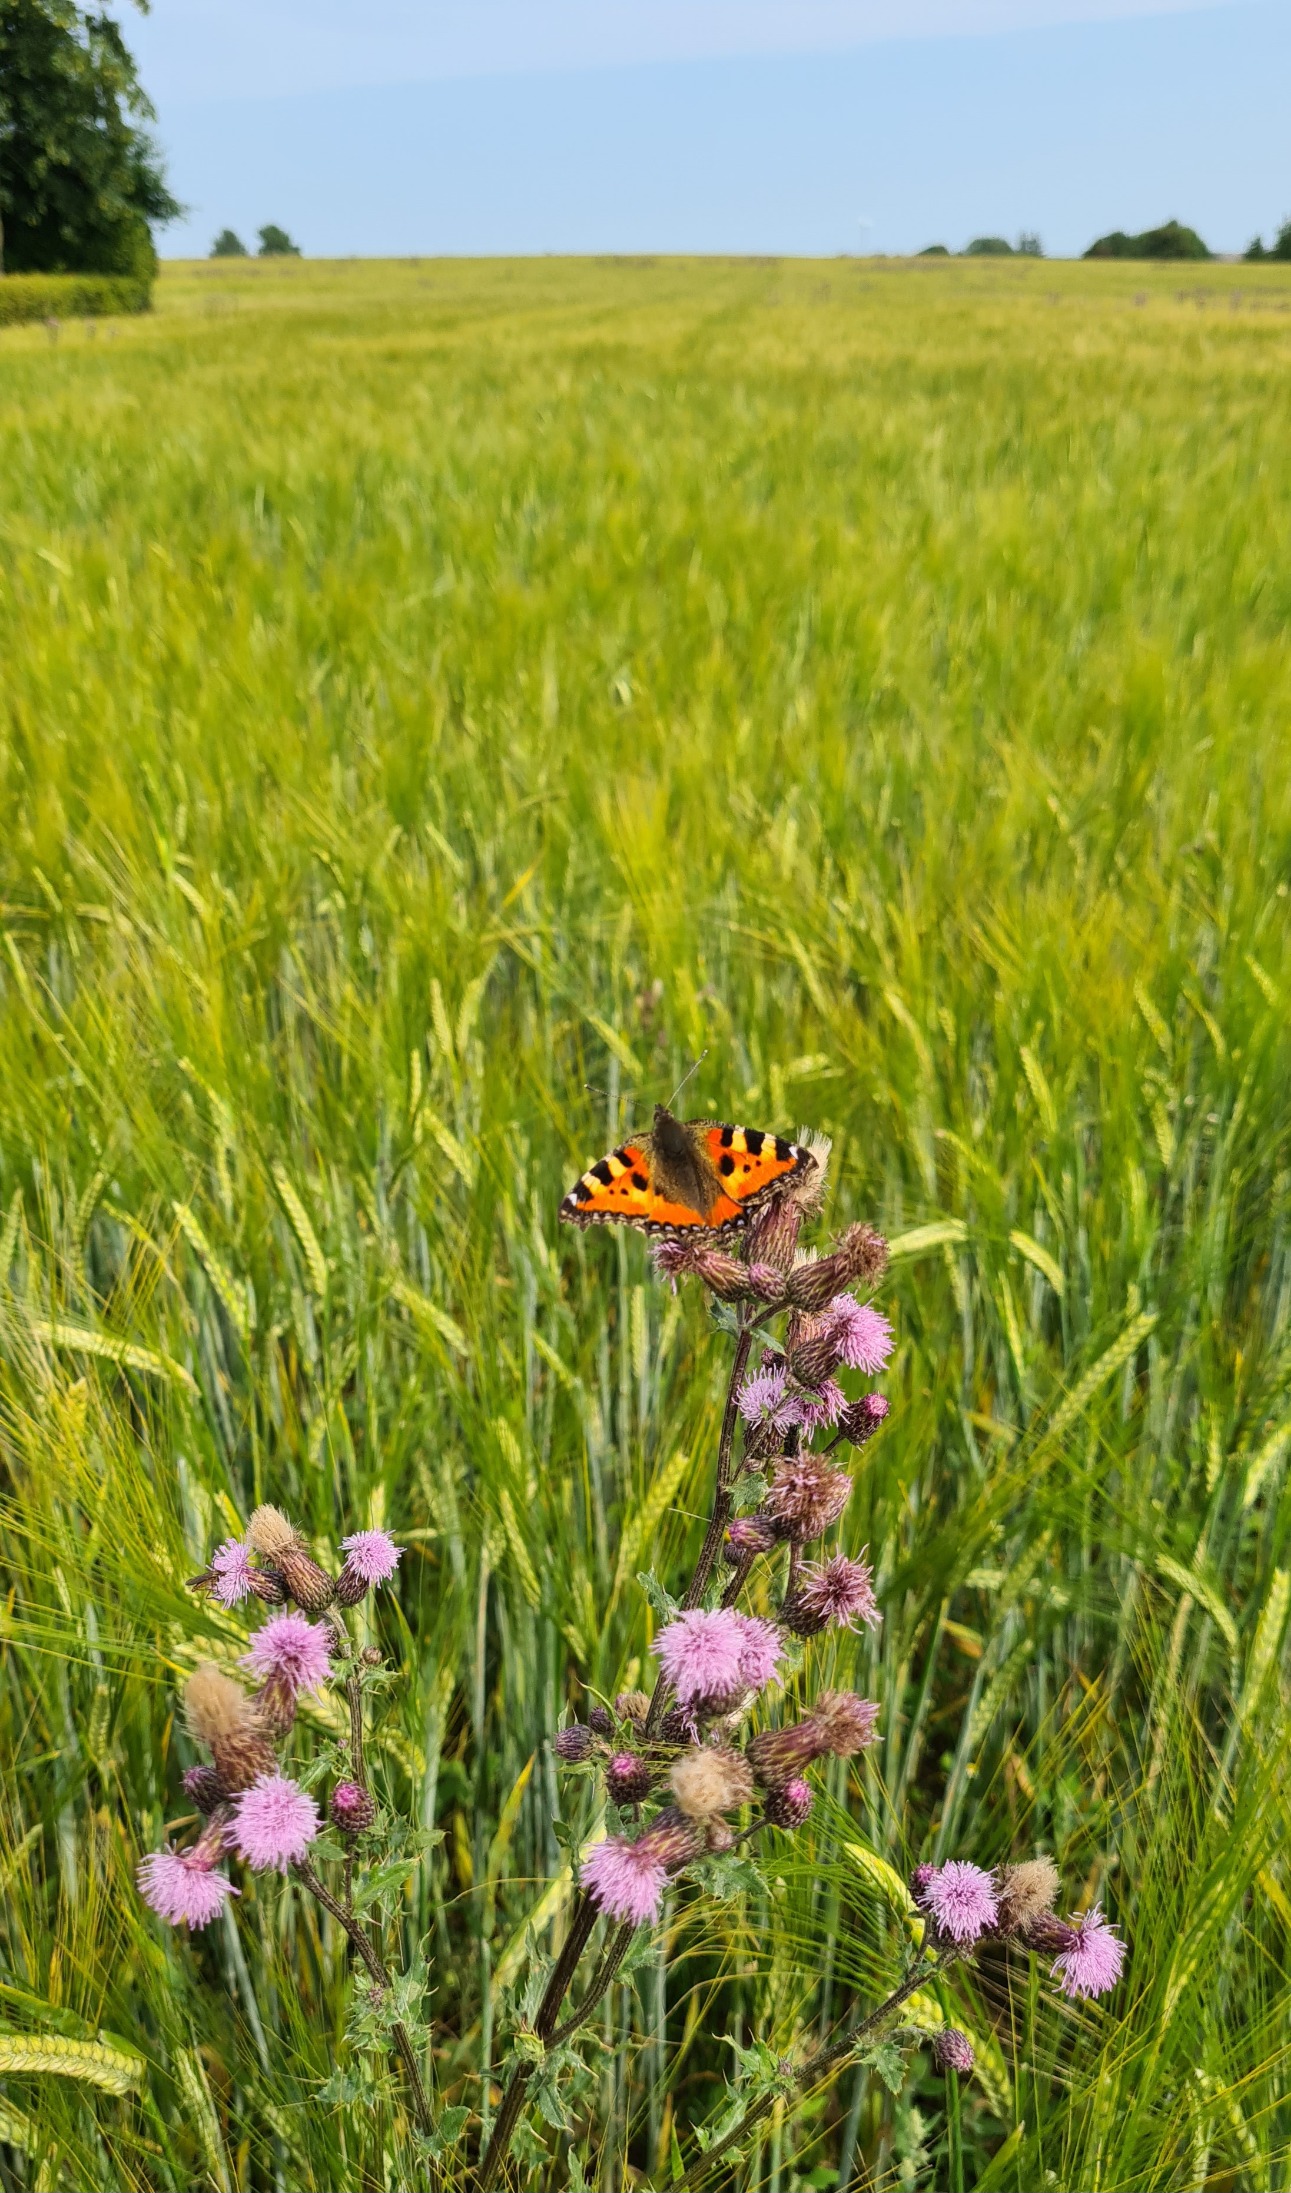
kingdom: Animalia
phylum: Arthropoda
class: Insecta
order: Lepidoptera
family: Nymphalidae
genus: Aglais
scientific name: Aglais urticae
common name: Nældens takvinge
